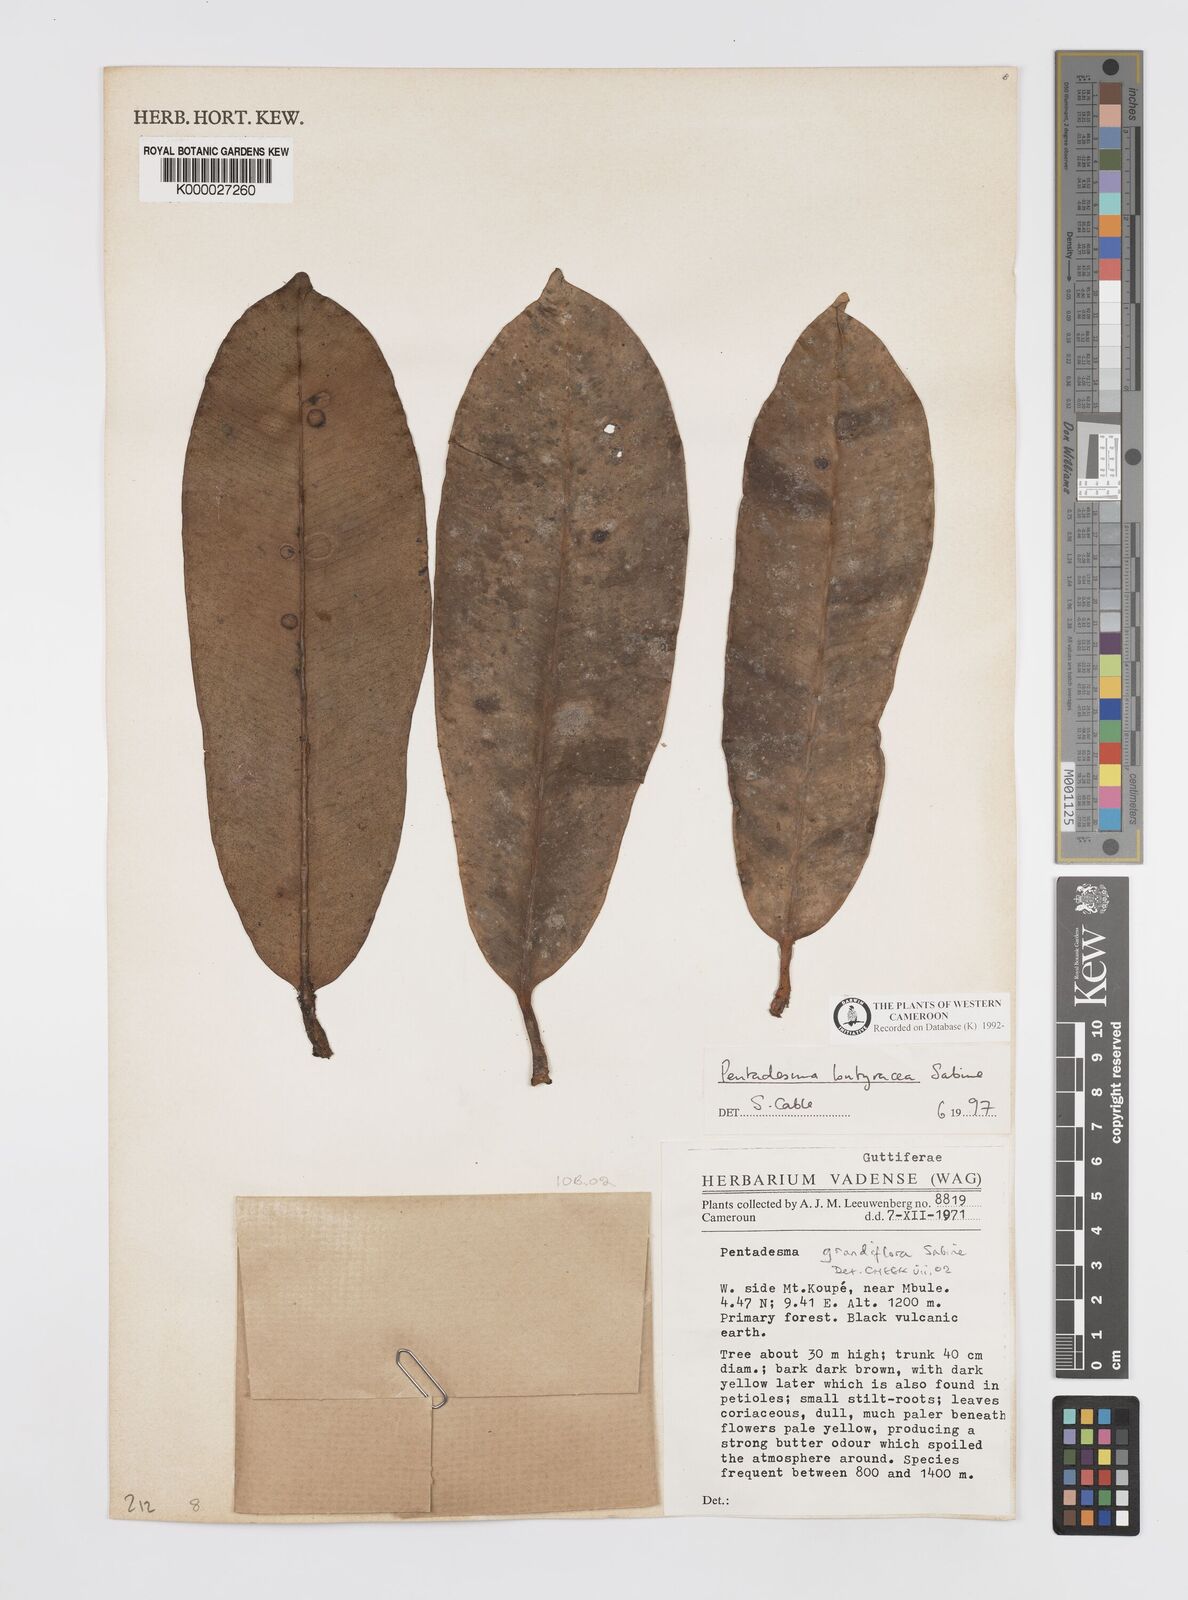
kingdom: Plantae
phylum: Tracheophyta
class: Magnoliopsida
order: Malpighiales
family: Clusiaceae
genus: Pentadesma
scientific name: Pentadesma grandifolia
